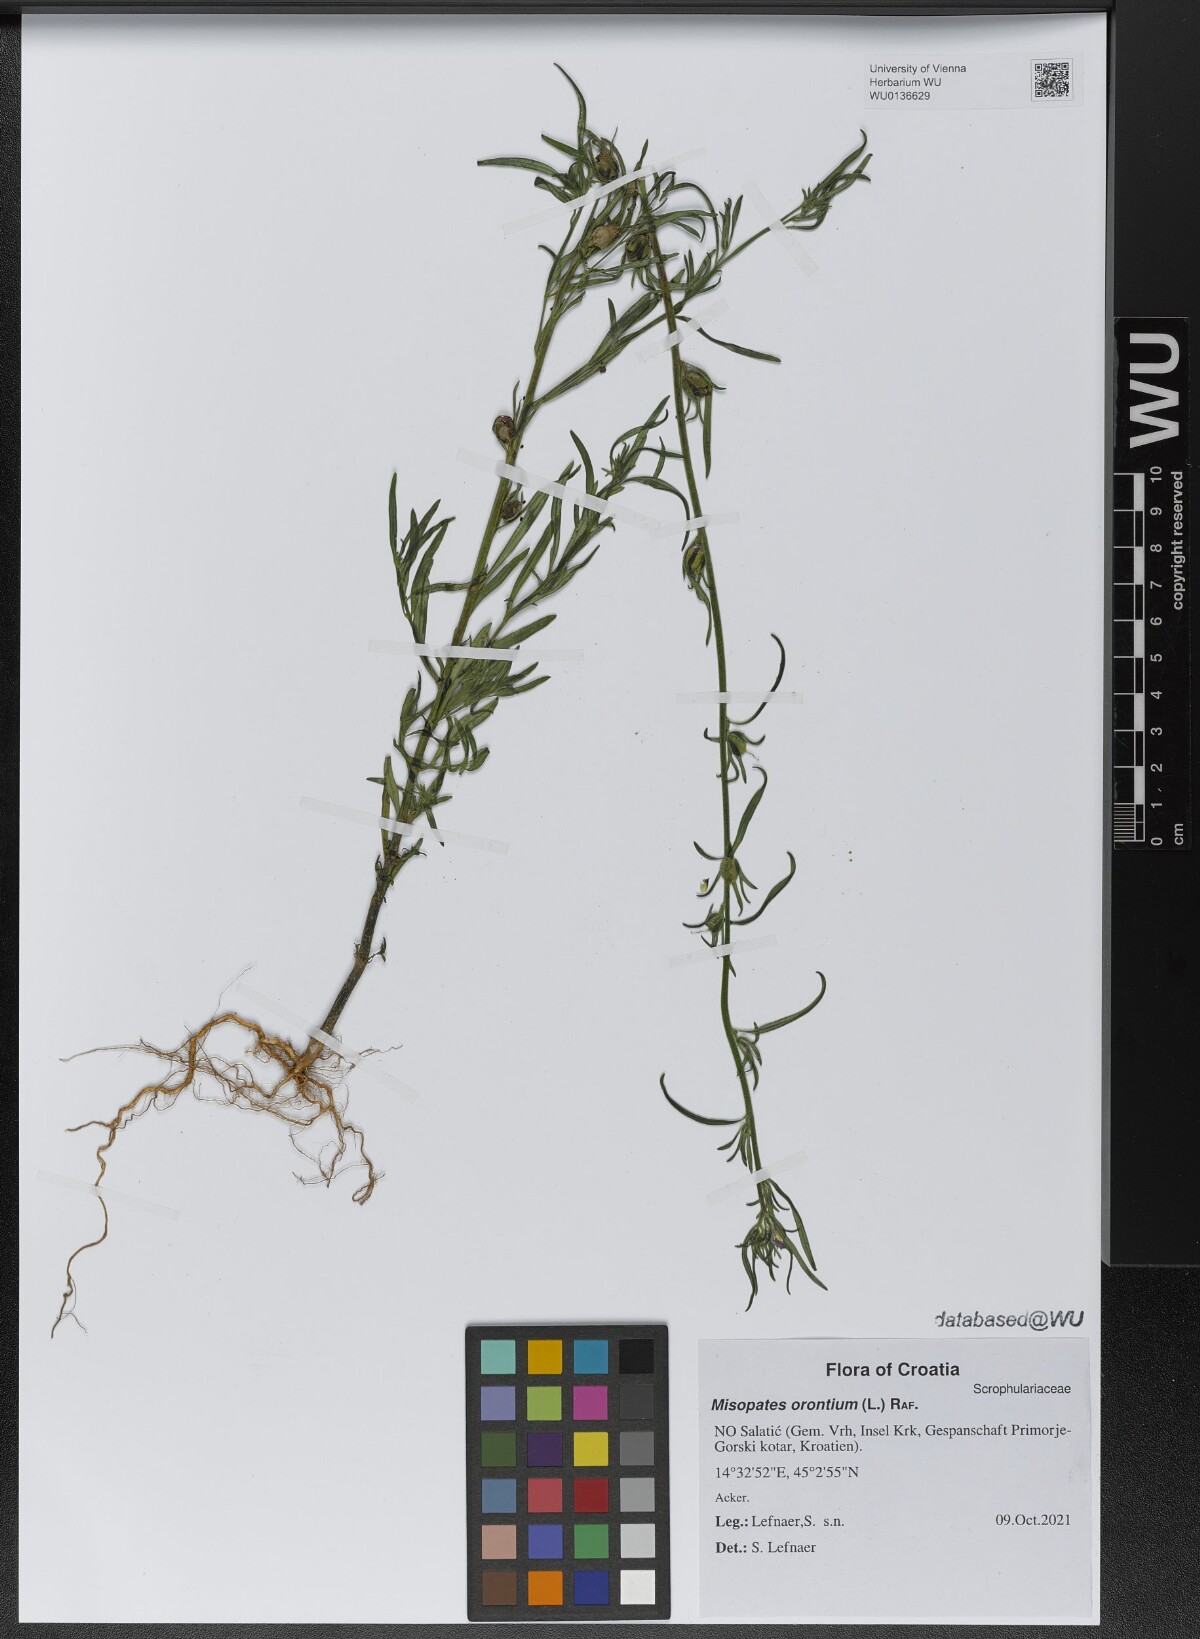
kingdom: Plantae
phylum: Tracheophyta
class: Magnoliopsida
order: Lamiales
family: Plantaginaceae
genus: Misopates
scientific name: Misopates orontium
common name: Weasel's-snout
